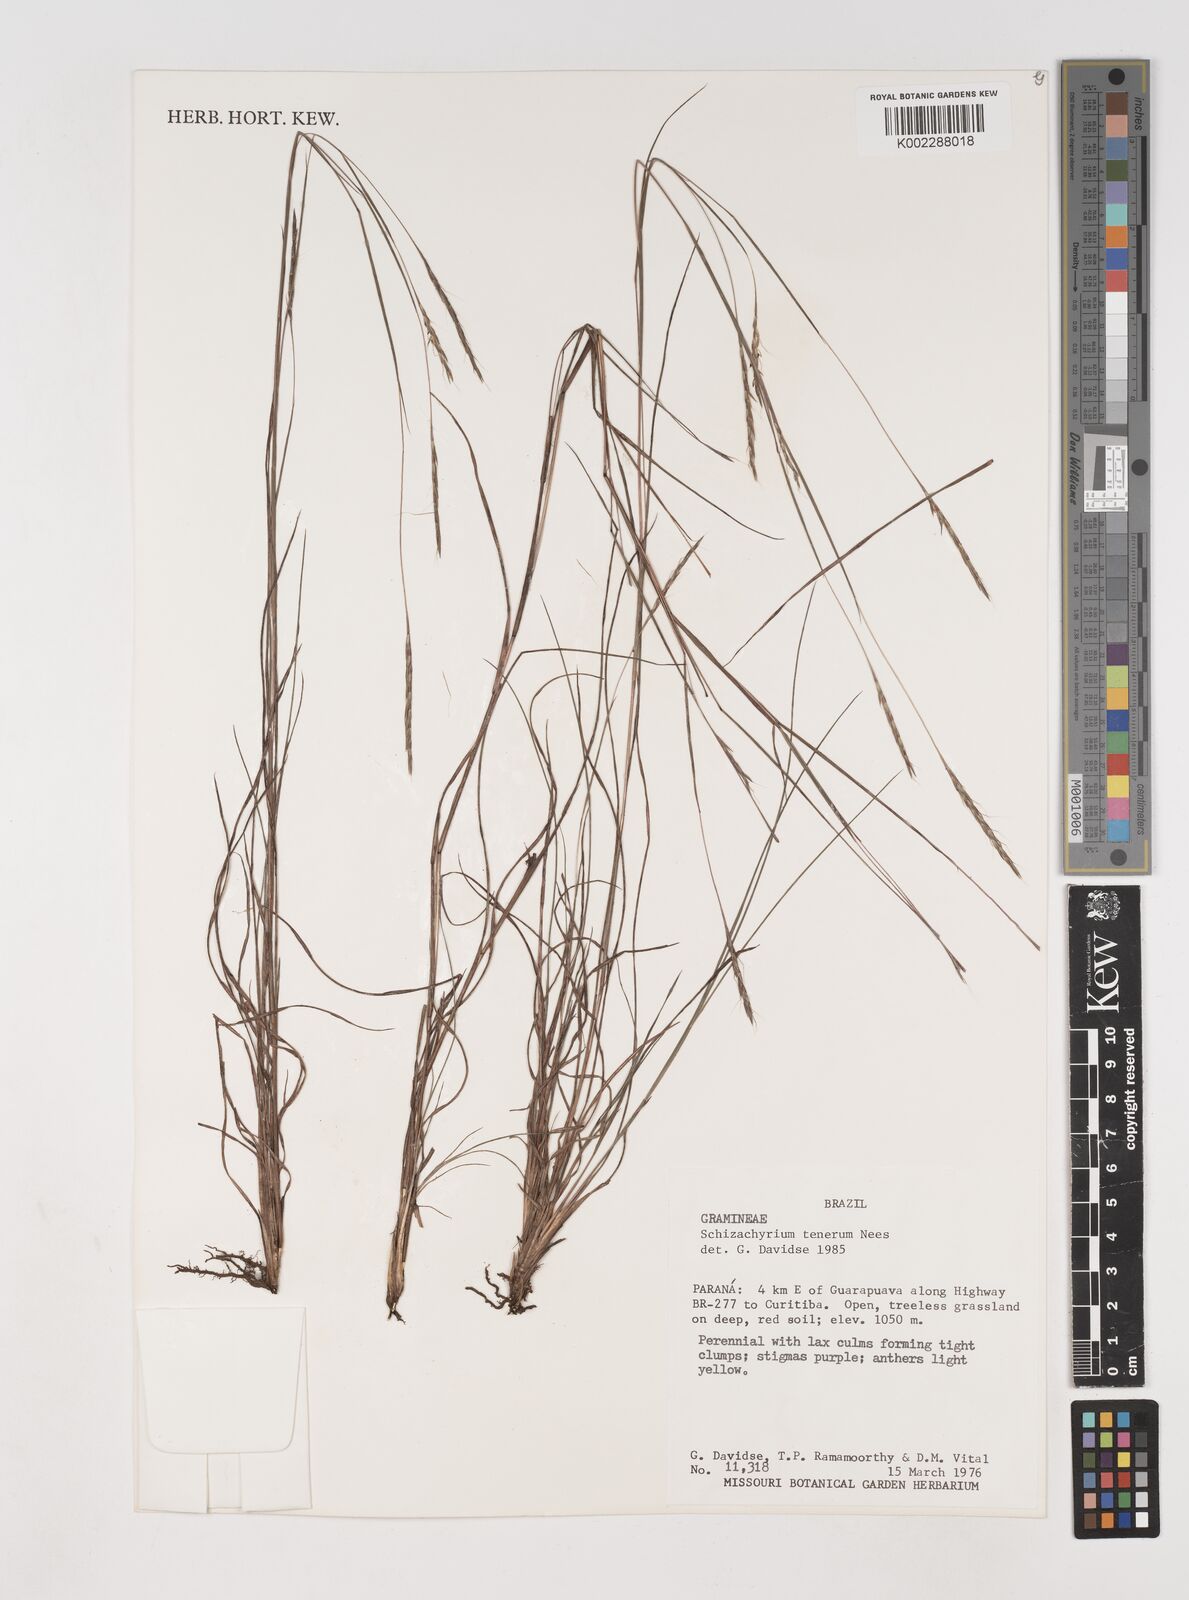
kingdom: Plantae
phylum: Tracheophyta
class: Liliopsida
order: Poales
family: Poaceae
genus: Andropogon
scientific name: Andropogon tener
